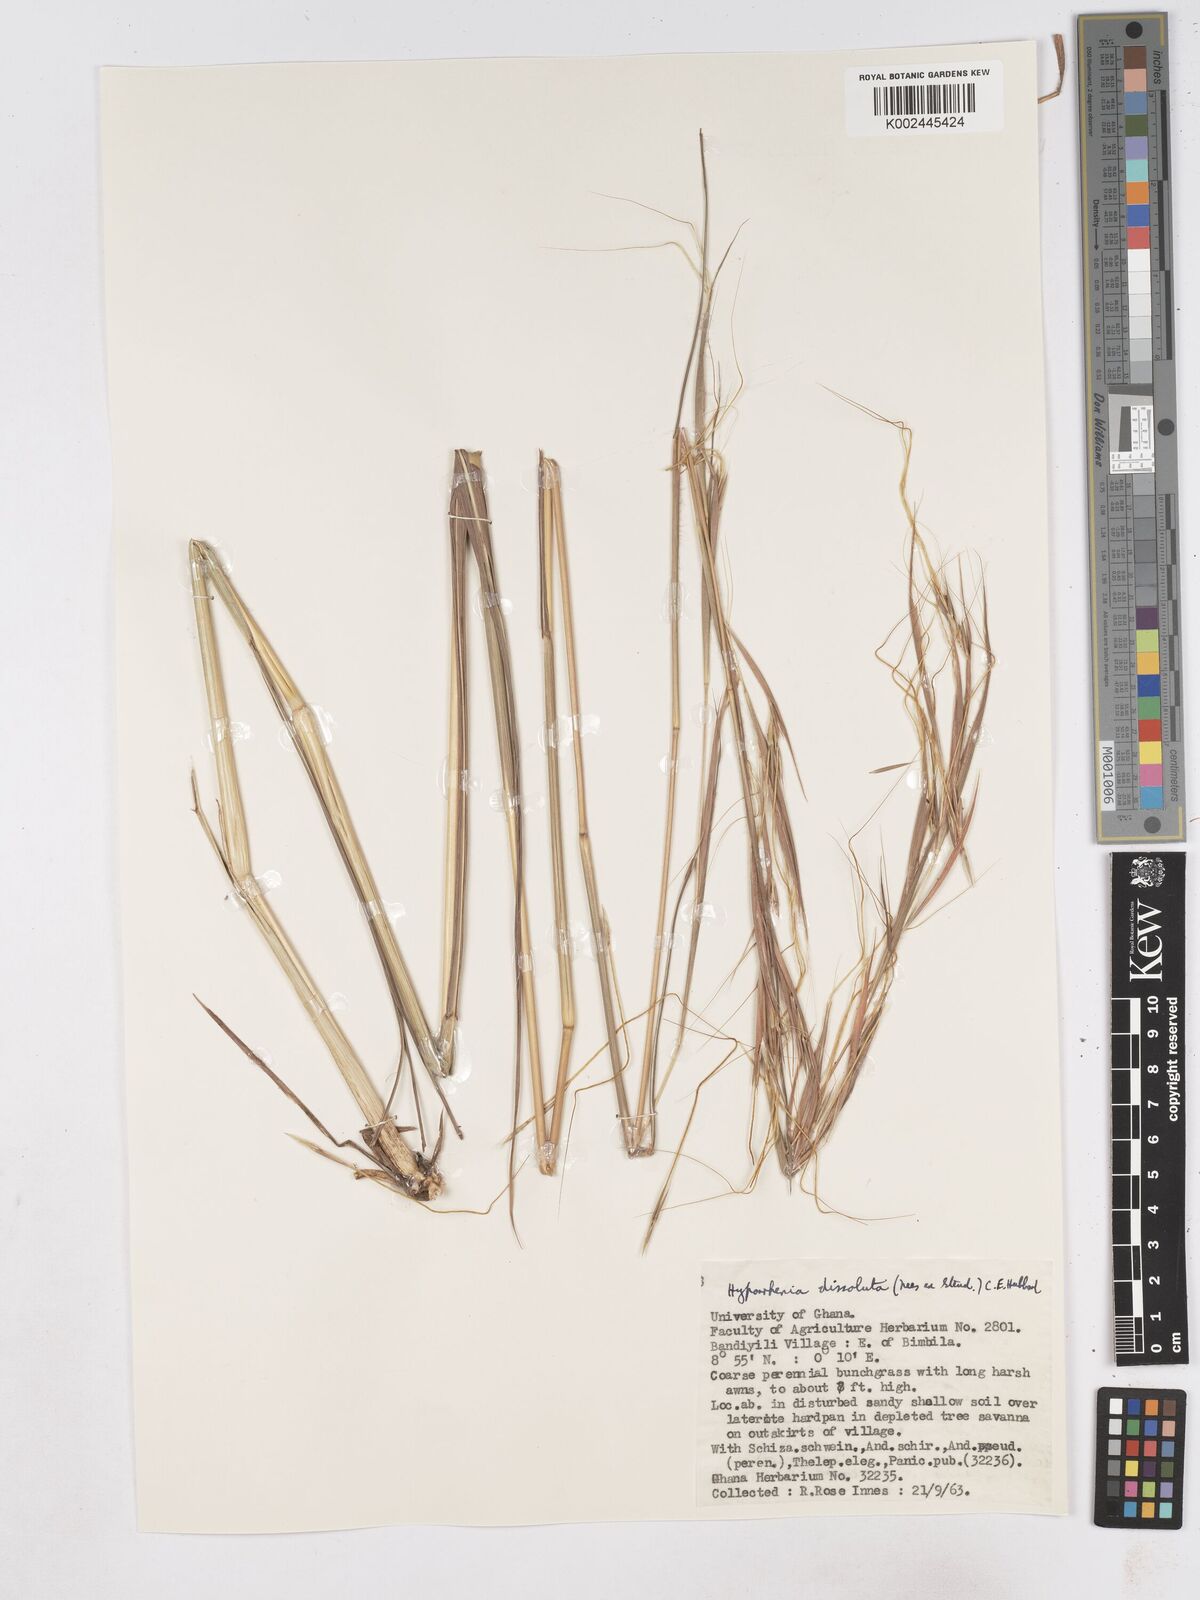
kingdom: Plantae
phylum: Tracheophyta
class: Liliopsida
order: Poales
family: Poaceae
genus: Hyperthelia
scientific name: Hyperthelia dissoluta
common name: Yellow thatching grass
